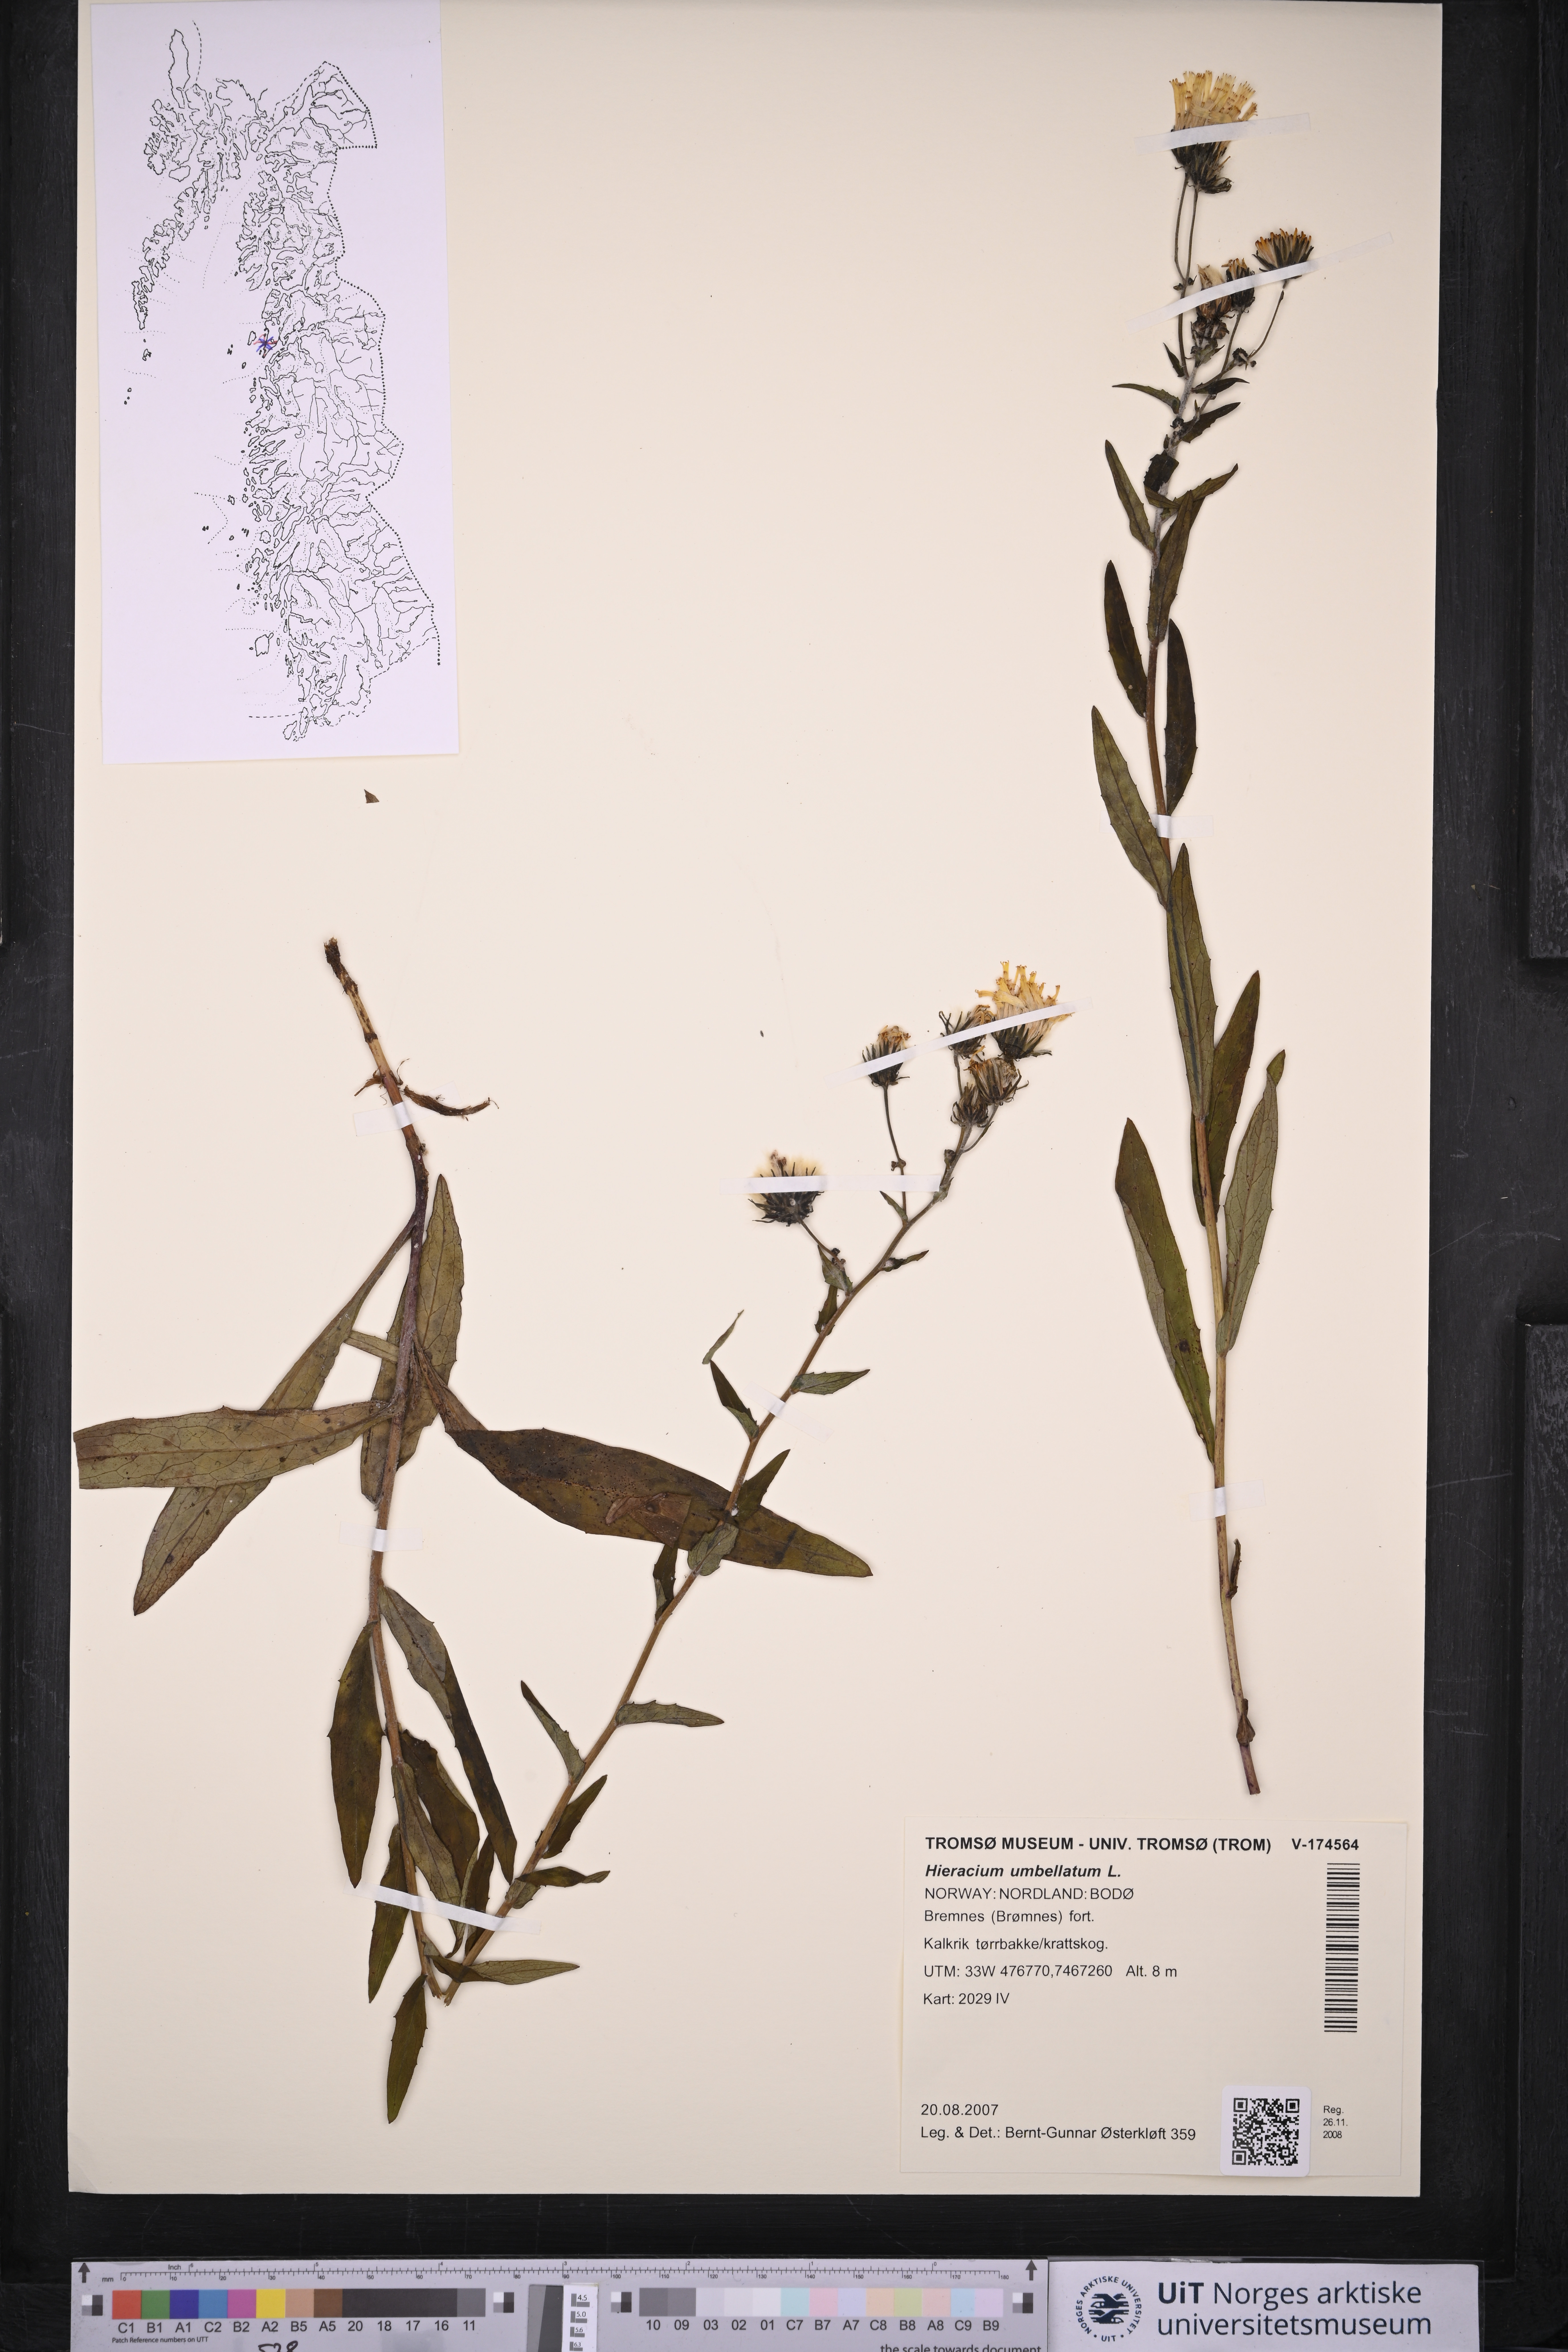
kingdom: Plantae
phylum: Tracheophyta
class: Magnoliopsida
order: Asterales
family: Asteraceae
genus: Hieracium
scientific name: Hieracium umbellatum
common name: Northern hawkweed
